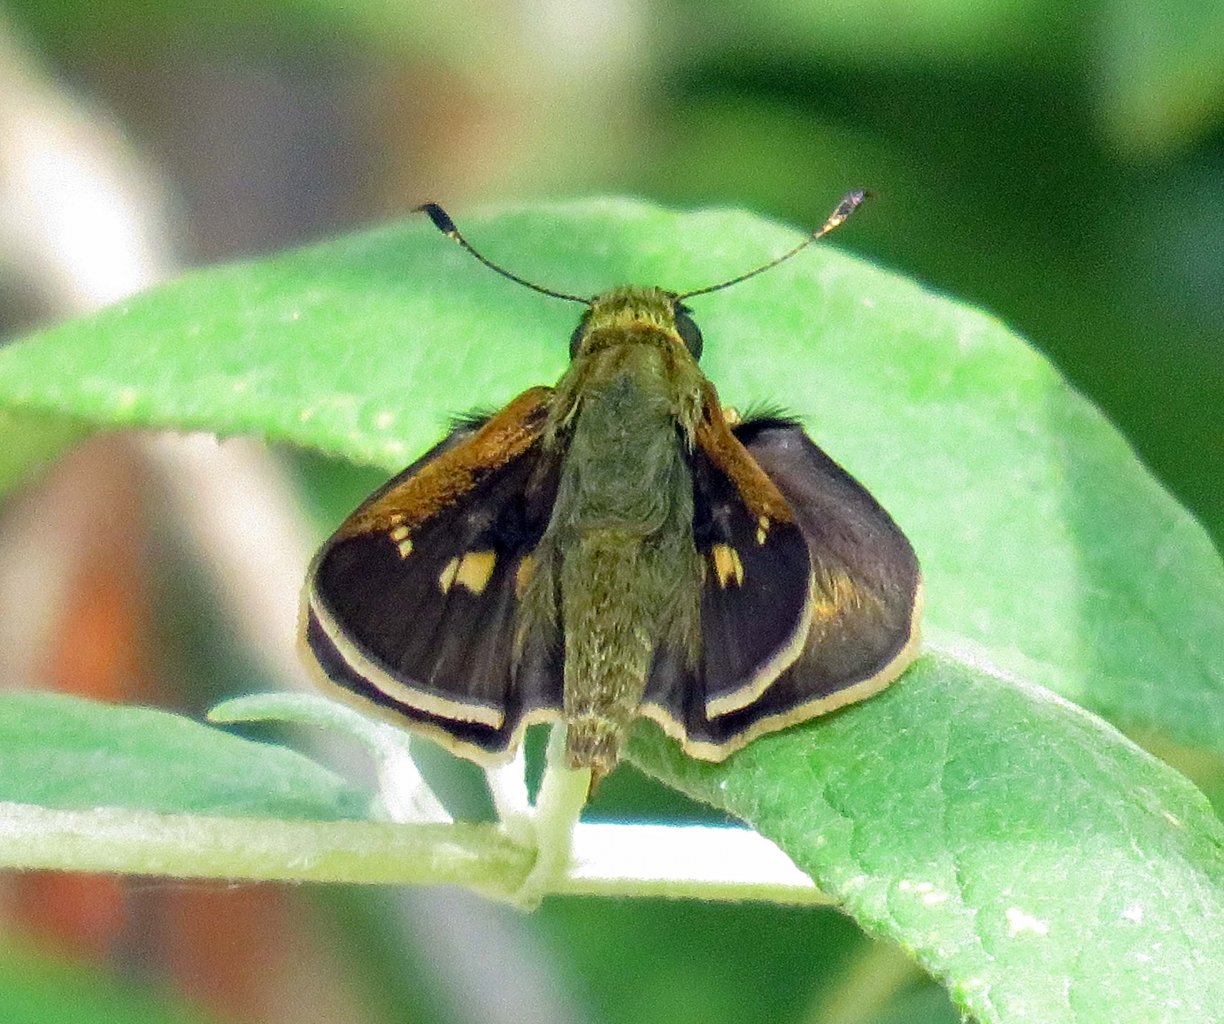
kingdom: Animalia
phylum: Arthropoda
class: Insecta
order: Lepidoptera
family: Hesperiidae
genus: Wallengrenia
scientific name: Wallengrenia otho
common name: Southern Broken-Dash
